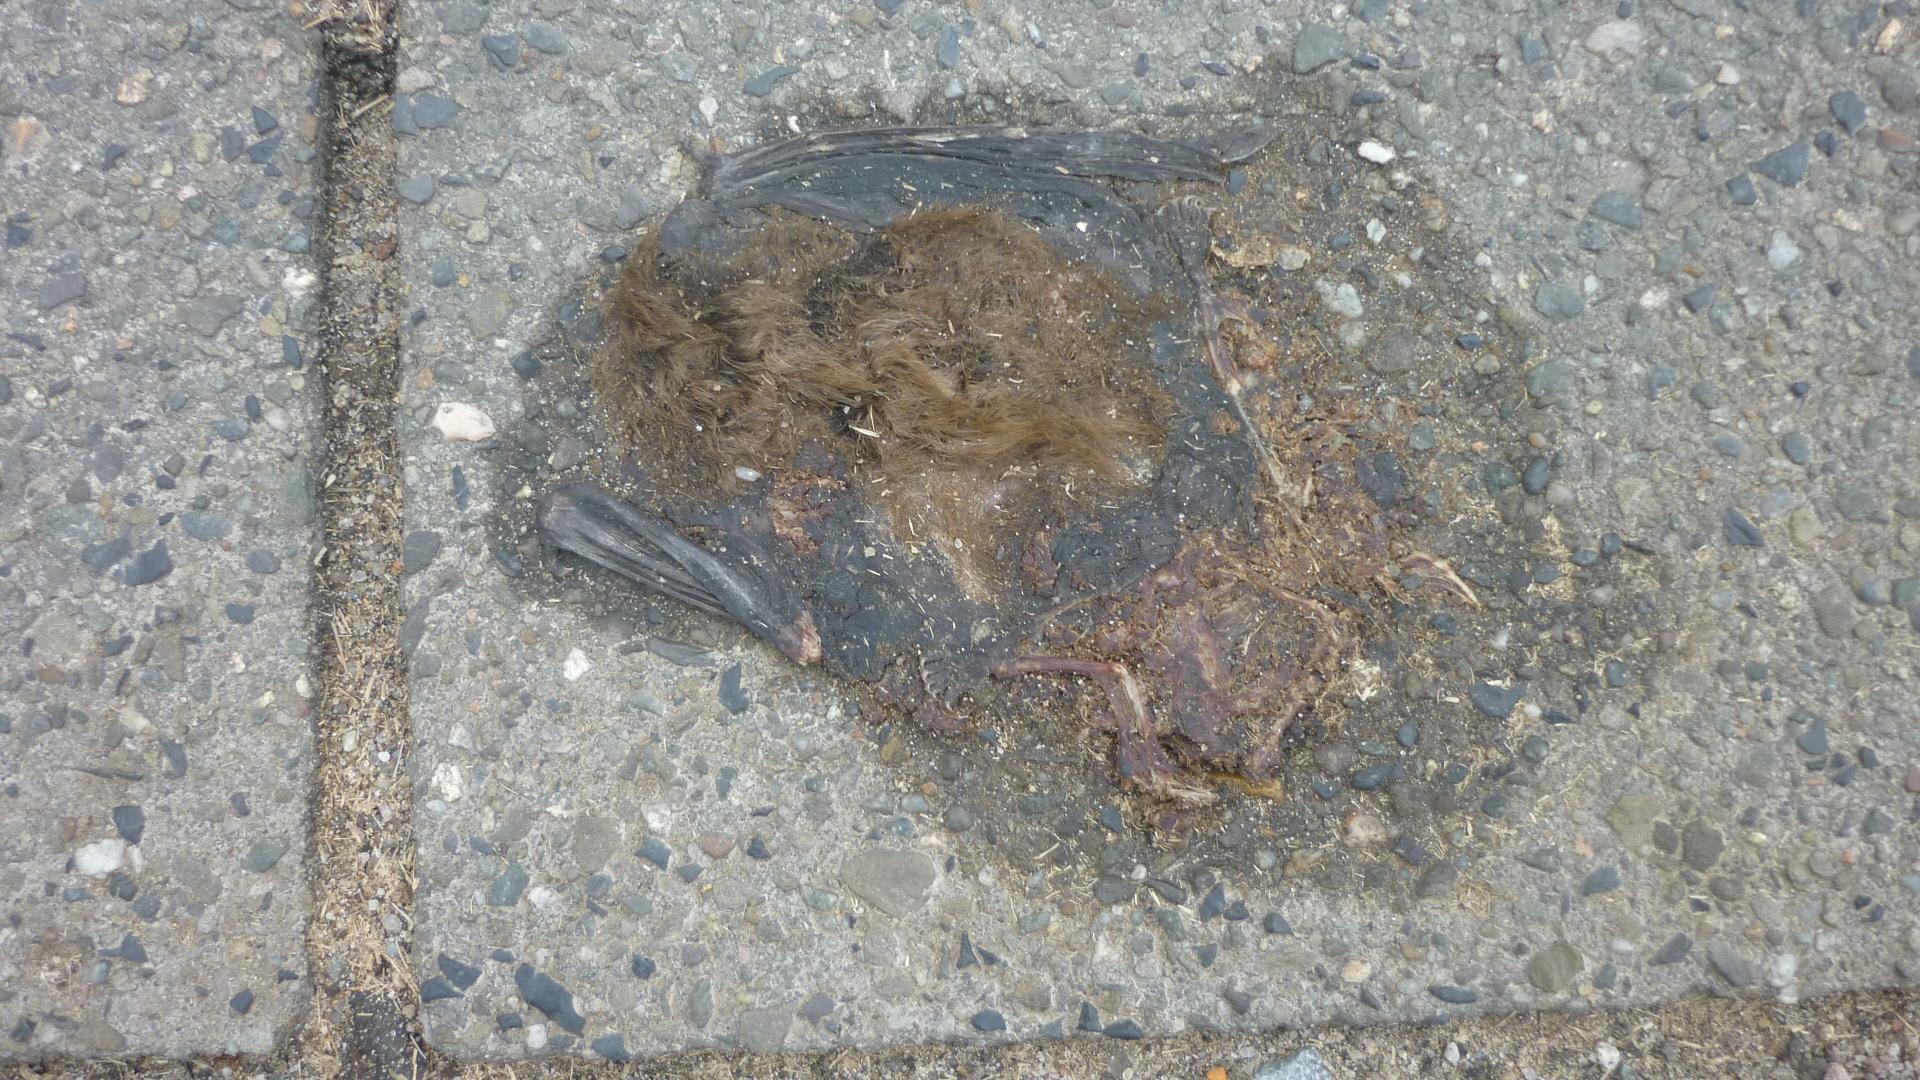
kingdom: Animalia
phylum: Chordata
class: Mammalia
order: Chiroptera
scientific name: Chiroptera
